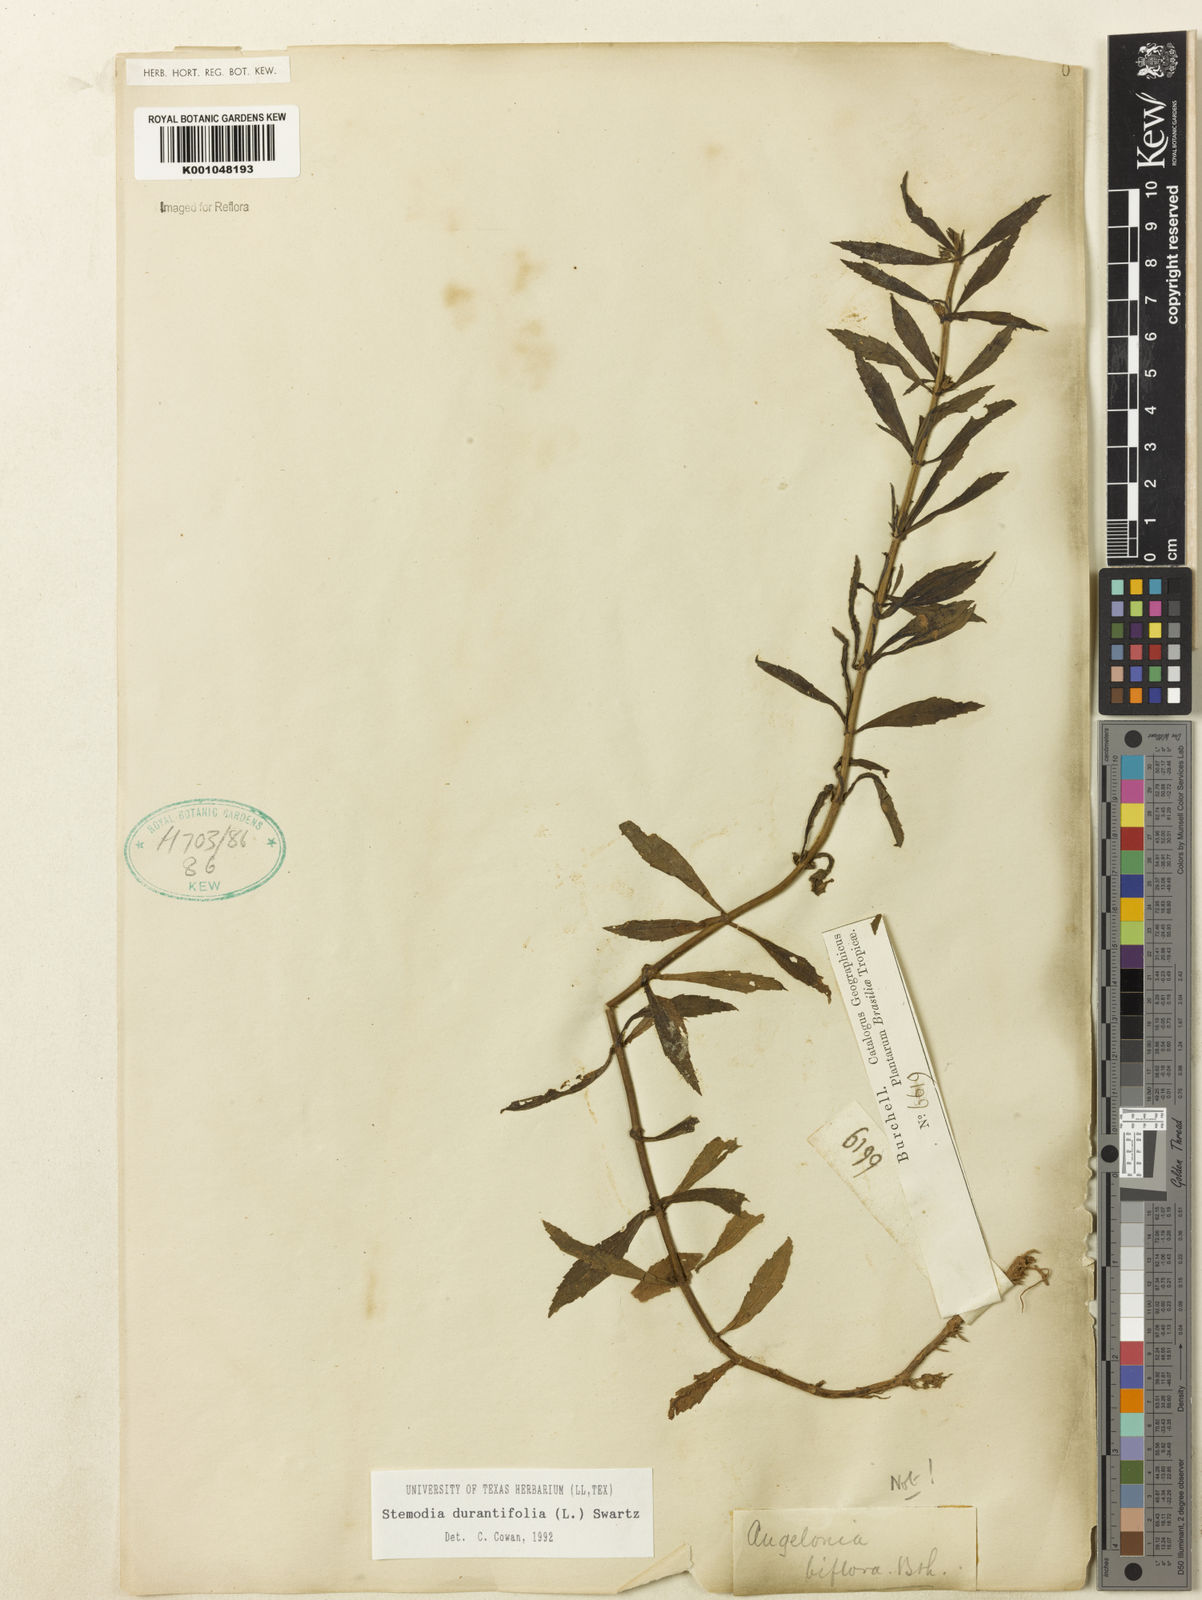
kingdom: Plantae
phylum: Tracheophyta
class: Magnoliopsida
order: Lamiales
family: Plantaginaceae
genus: Stemodia
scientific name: Stemodia durantifolia
